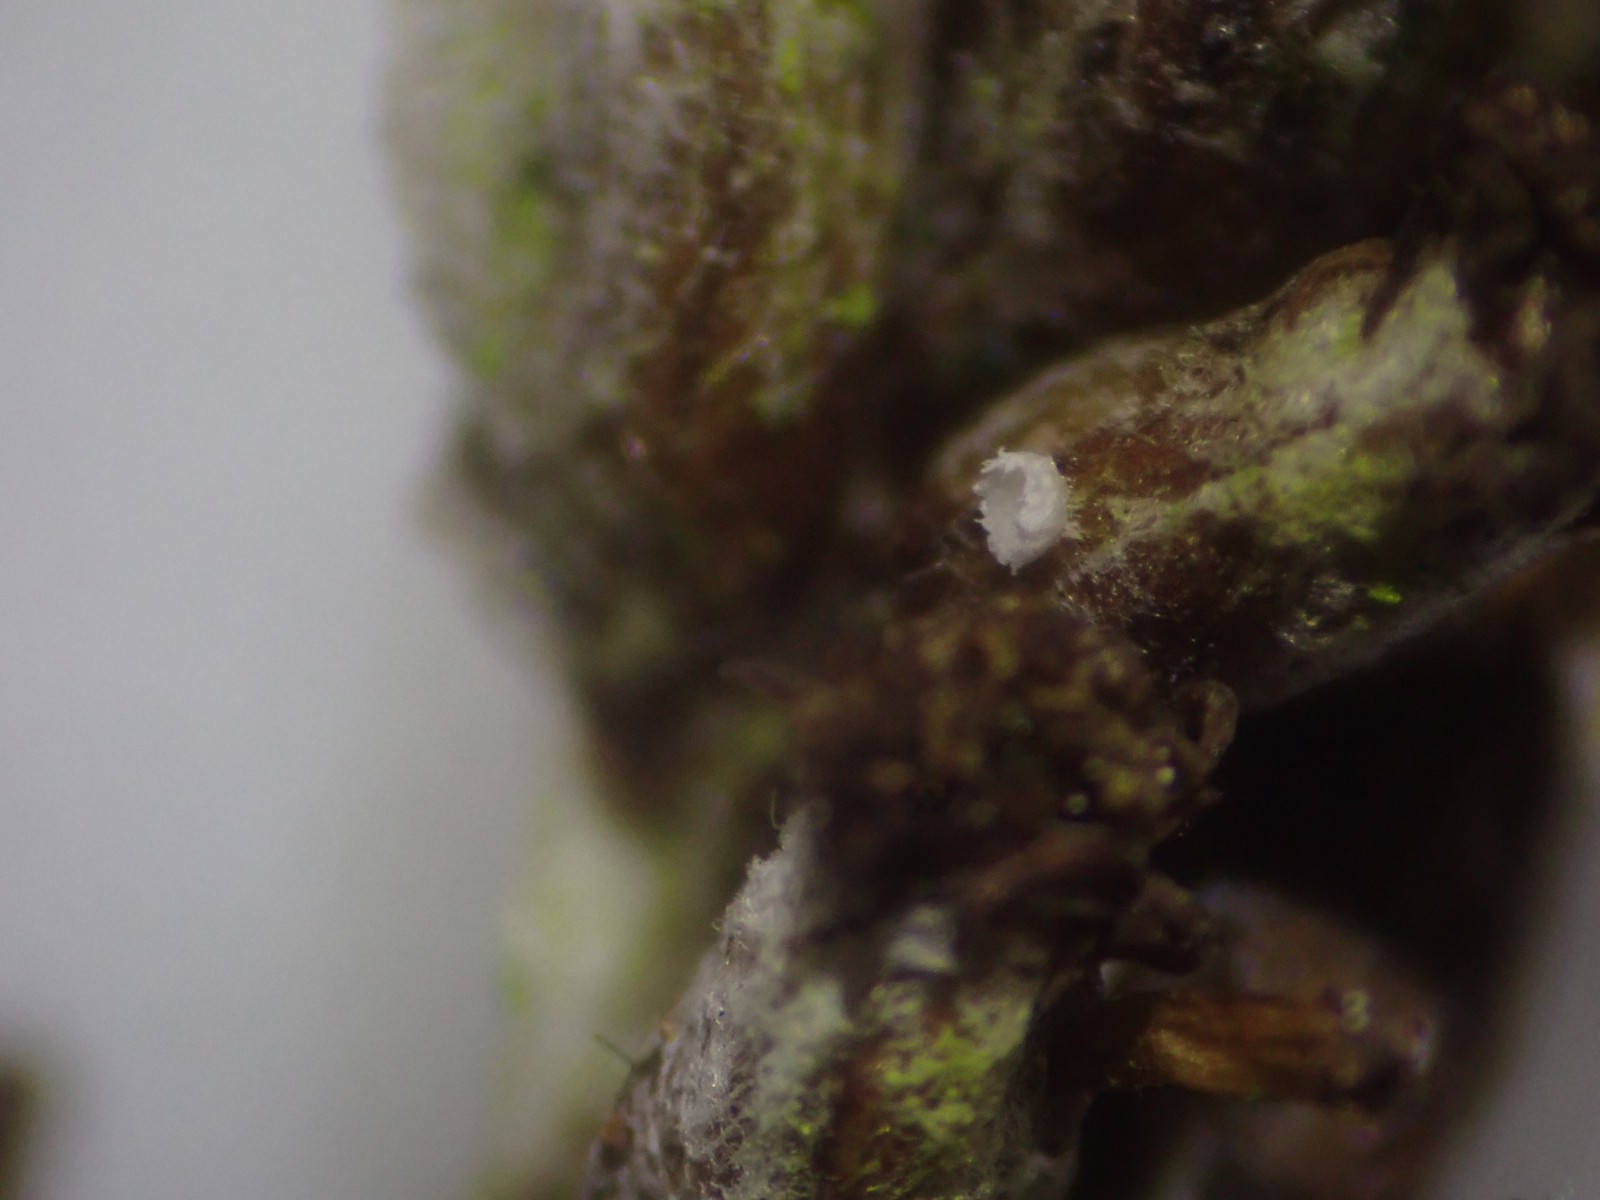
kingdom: Fungi
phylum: Basidiomycota
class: Agaricomycetes
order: Agaricales
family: Cyphellaceae
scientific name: Cyphellaceae
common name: hængeskåle
